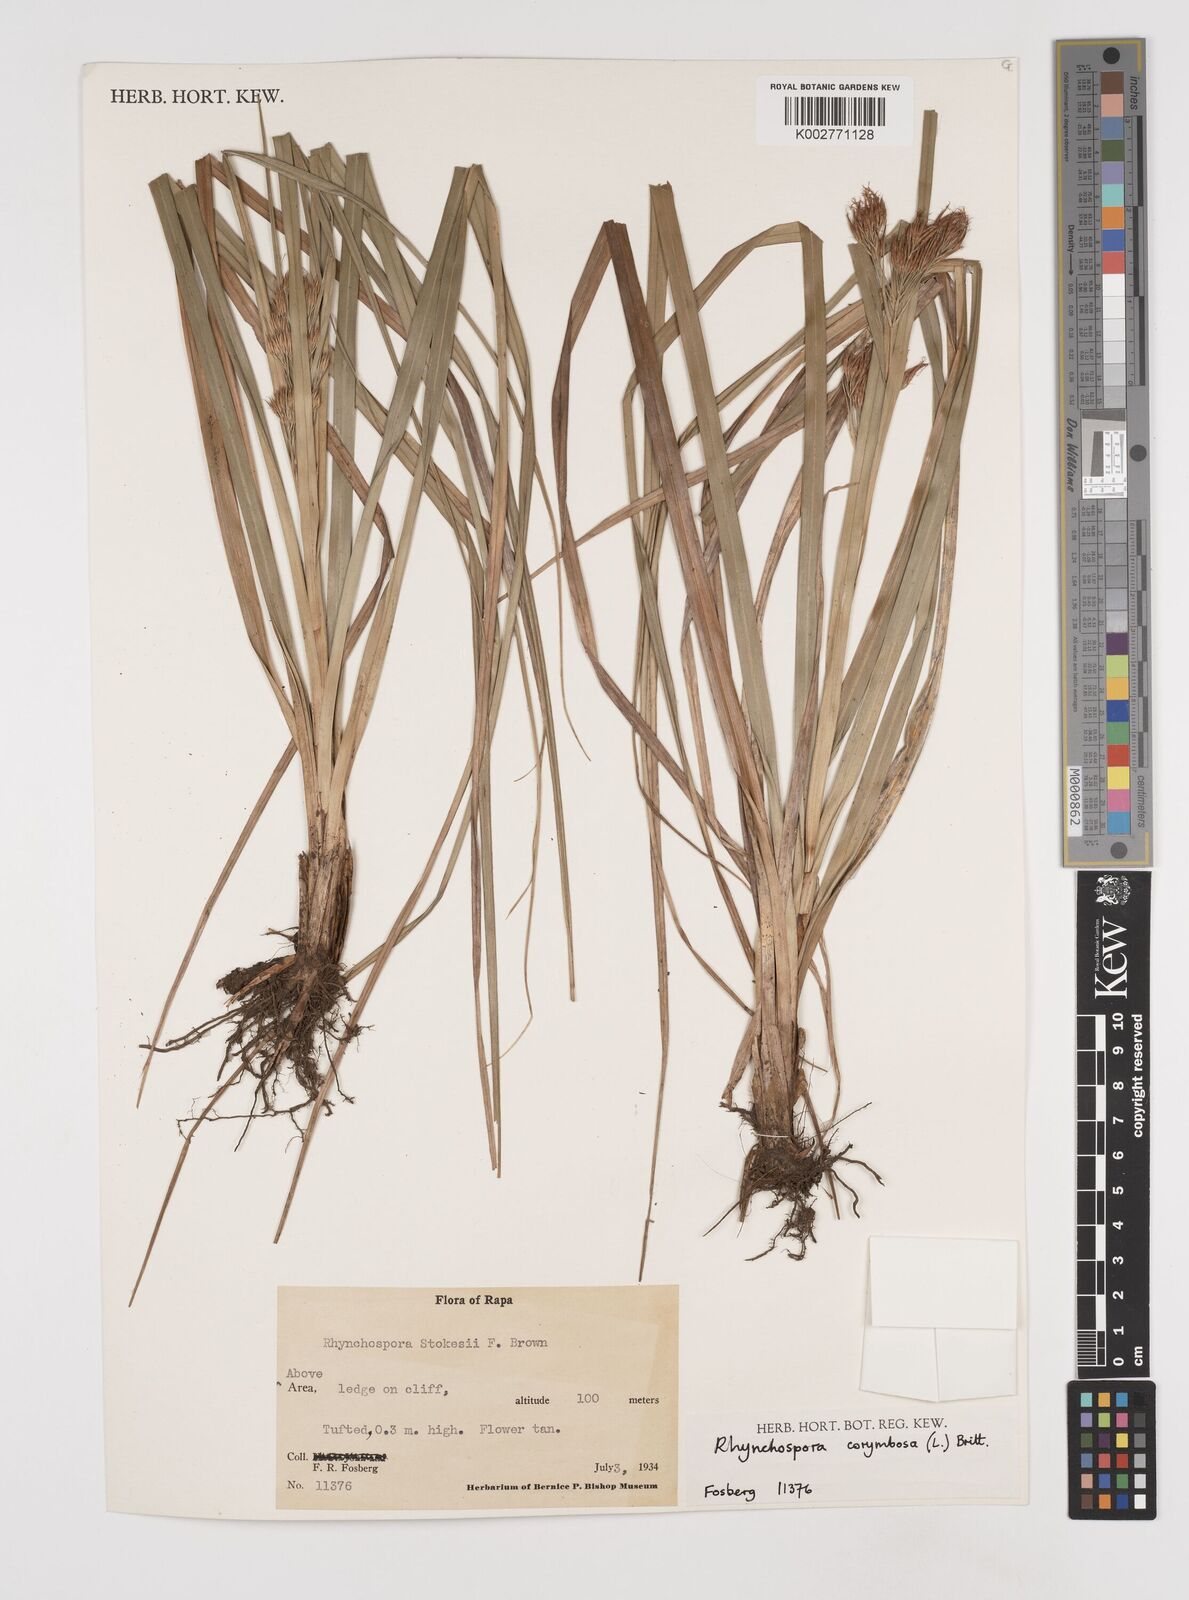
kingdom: Plantae
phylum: Tracheophyta
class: Liliopsida
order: Poales
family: Cyperaceae
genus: Rhynchospora
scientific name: Rhynchospora corymbosa
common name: Golden beak sedge
